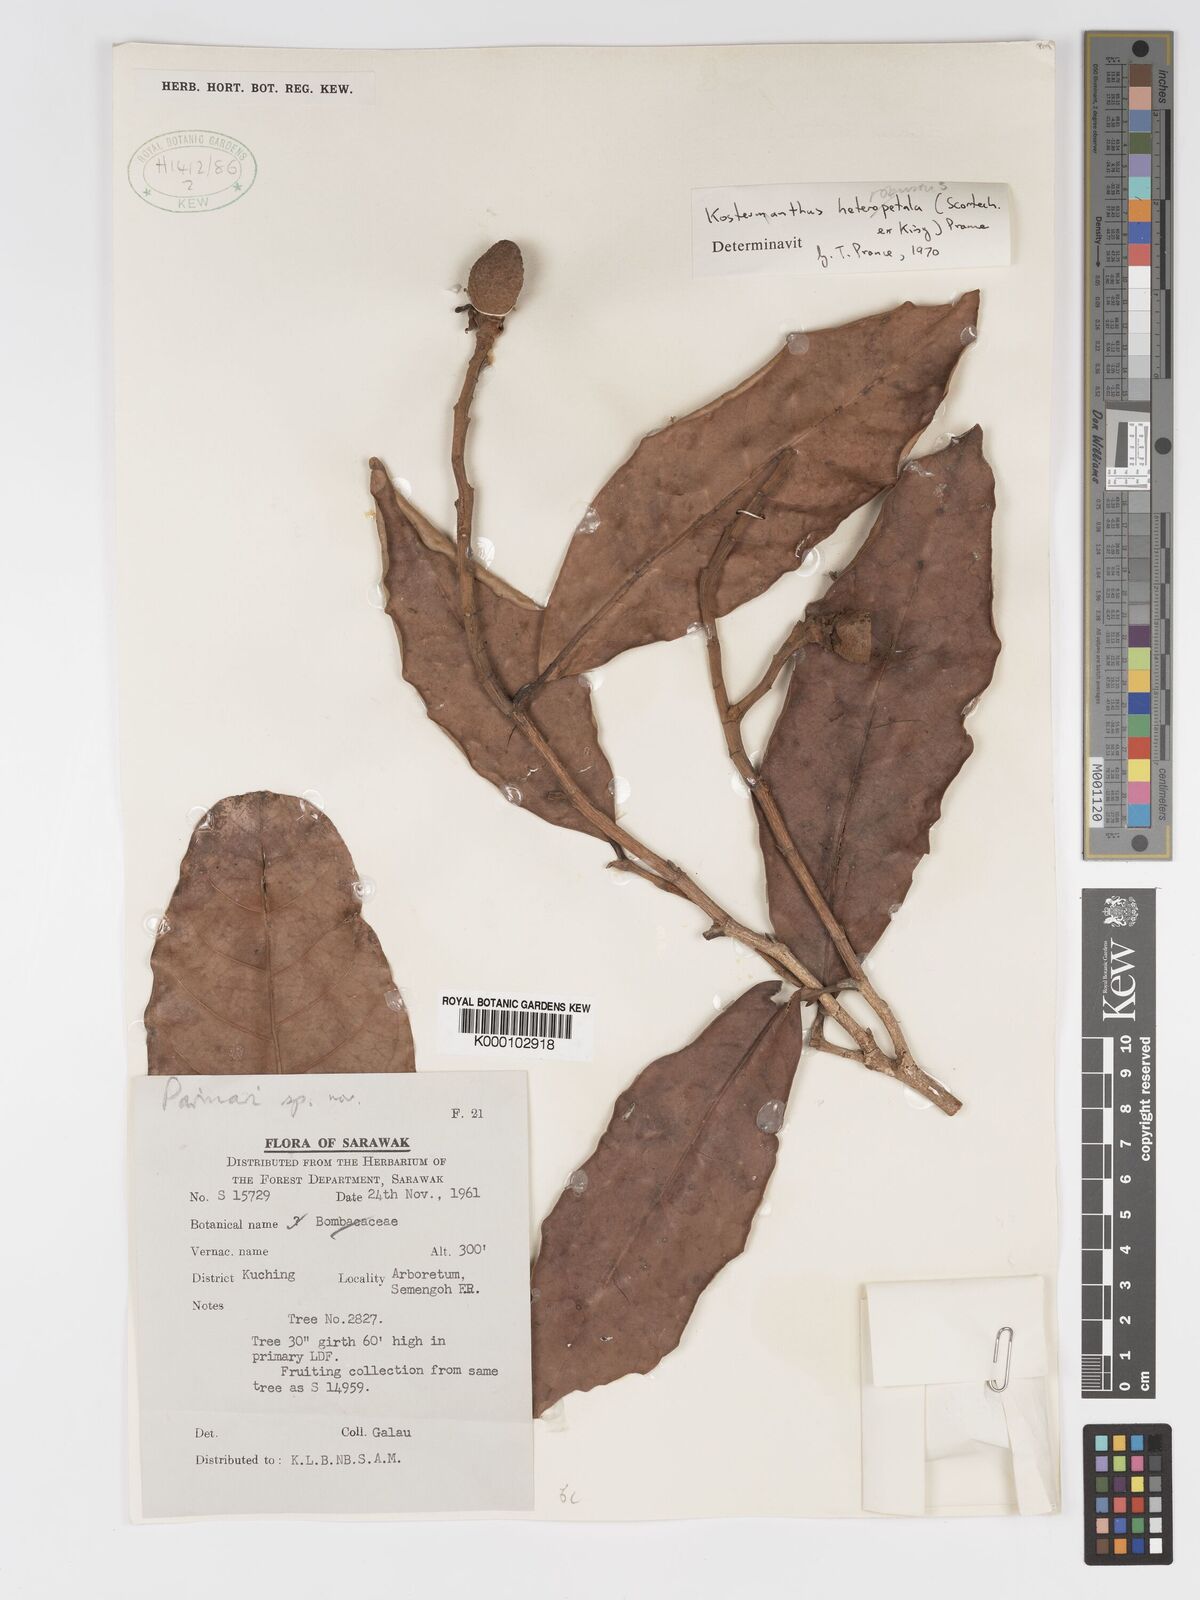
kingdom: Plantae
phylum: Tracheophyta
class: Magnoliopsida
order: Malpighiales
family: Chrysobalanaceae
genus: Kostermanthus
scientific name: Kostermanthus robustus
